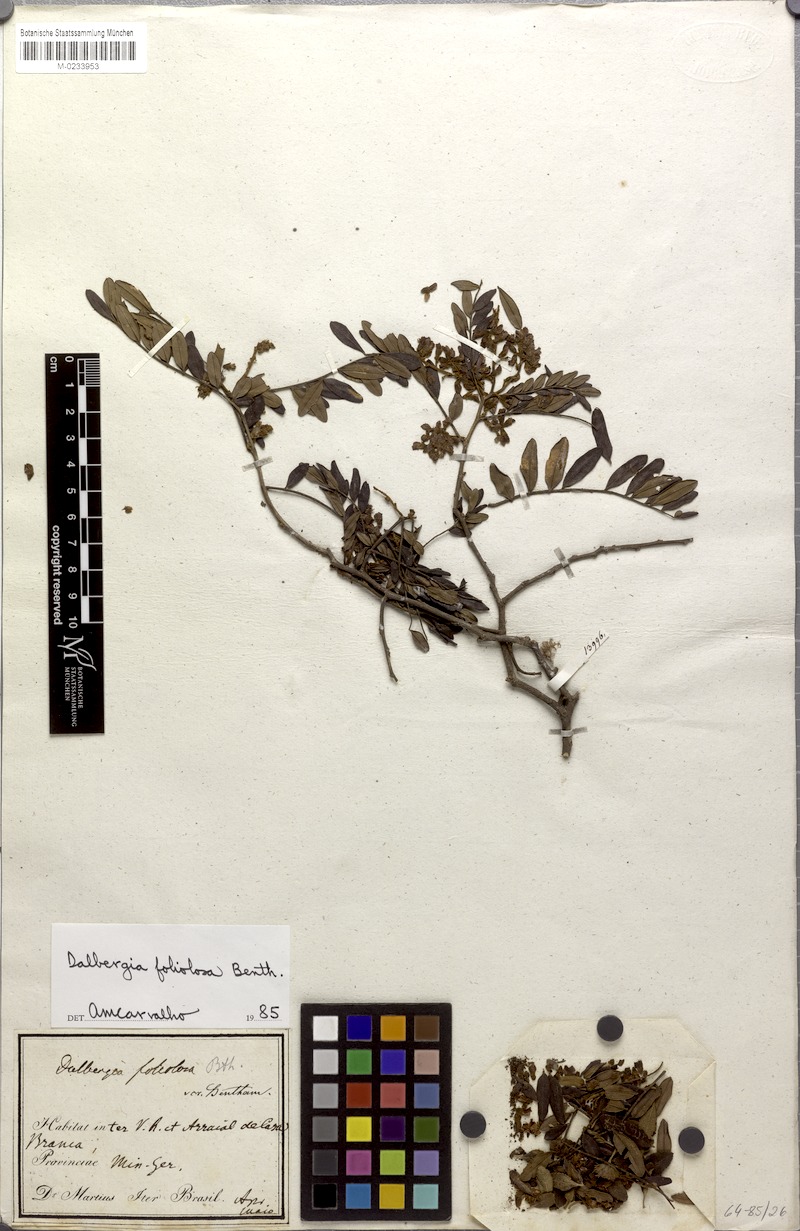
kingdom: Plantae
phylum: Tracheophyta
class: Magnoliopsida
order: Fabales
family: Fabaceae
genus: Dalbergia
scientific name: Dalbergia foliolosa
